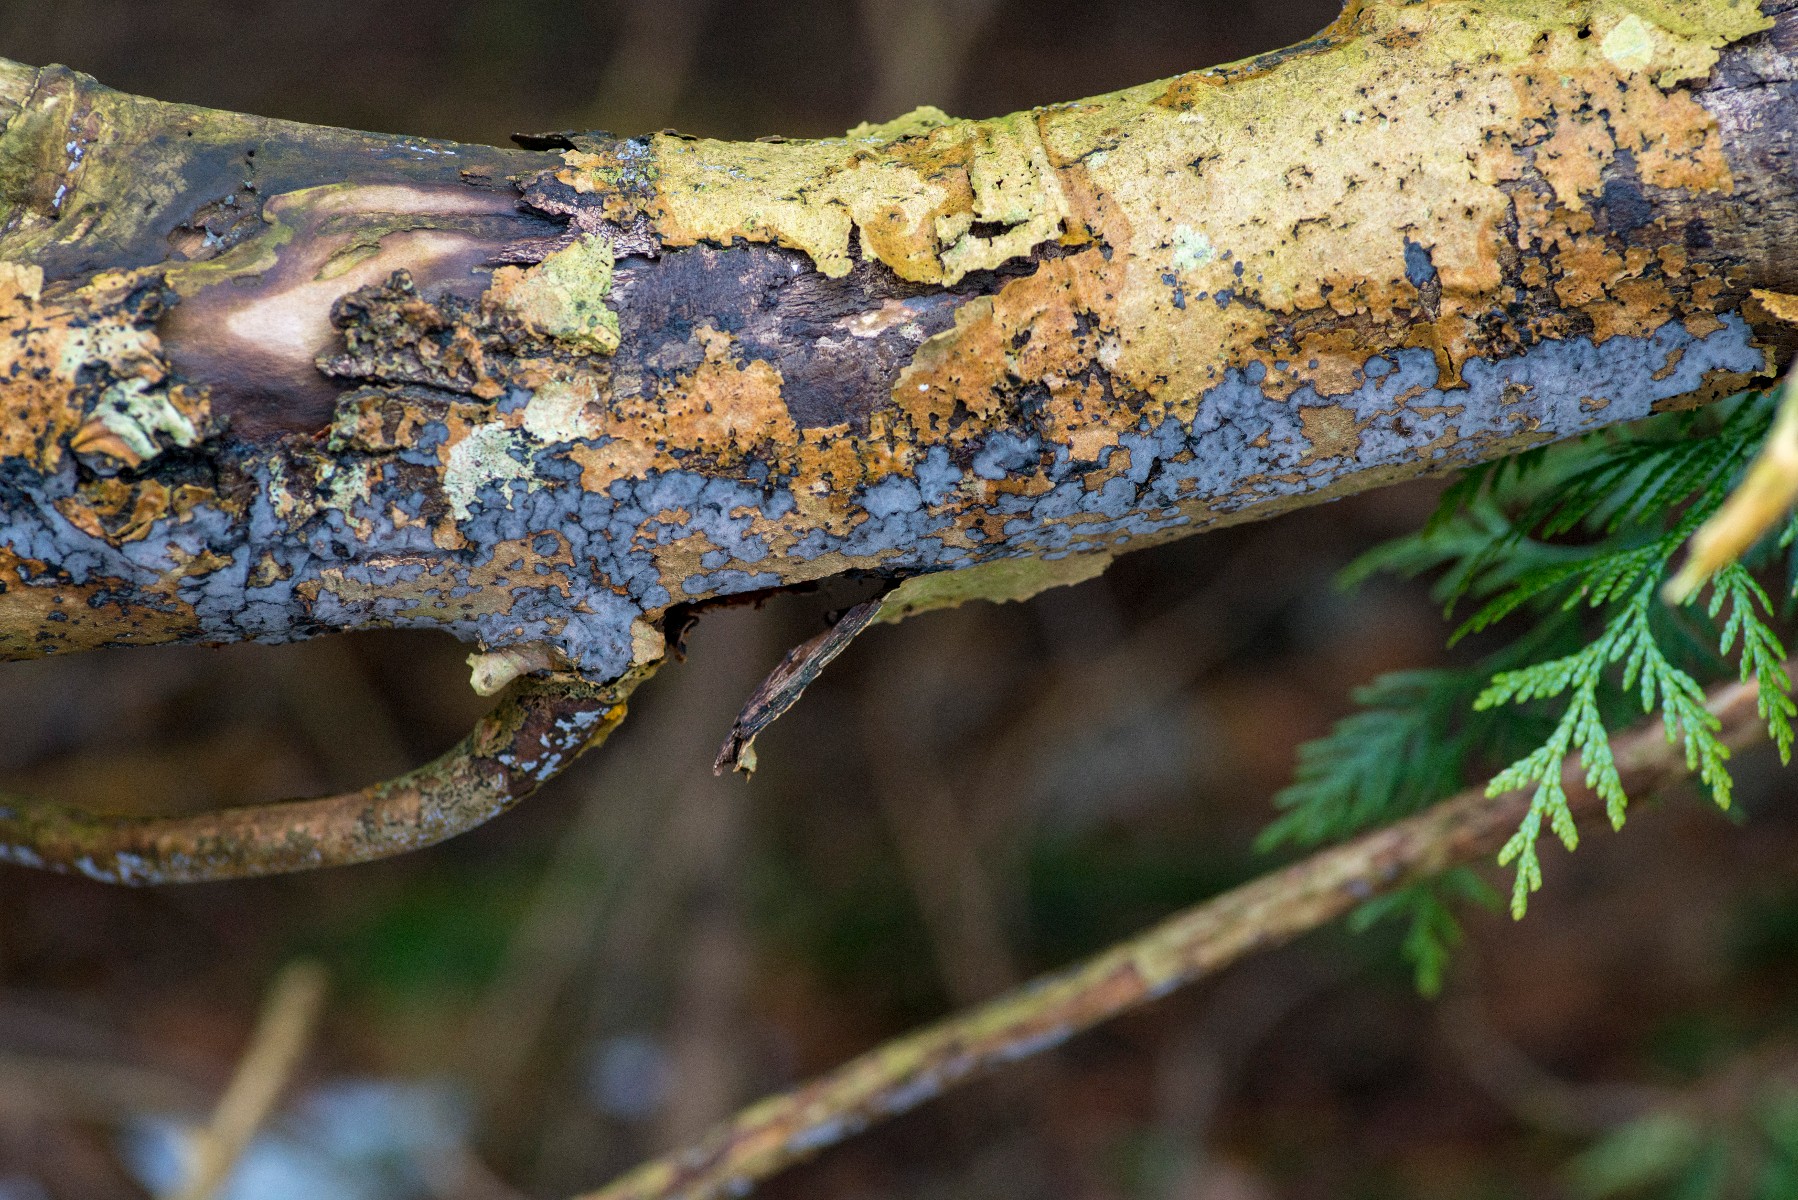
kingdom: Fungi
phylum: Basidiomycota
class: Agaricomycetes
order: Russulales
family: Peniophoraceae
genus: Peniophora
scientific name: Peniophora limitata
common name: mørkrandet voksskind
